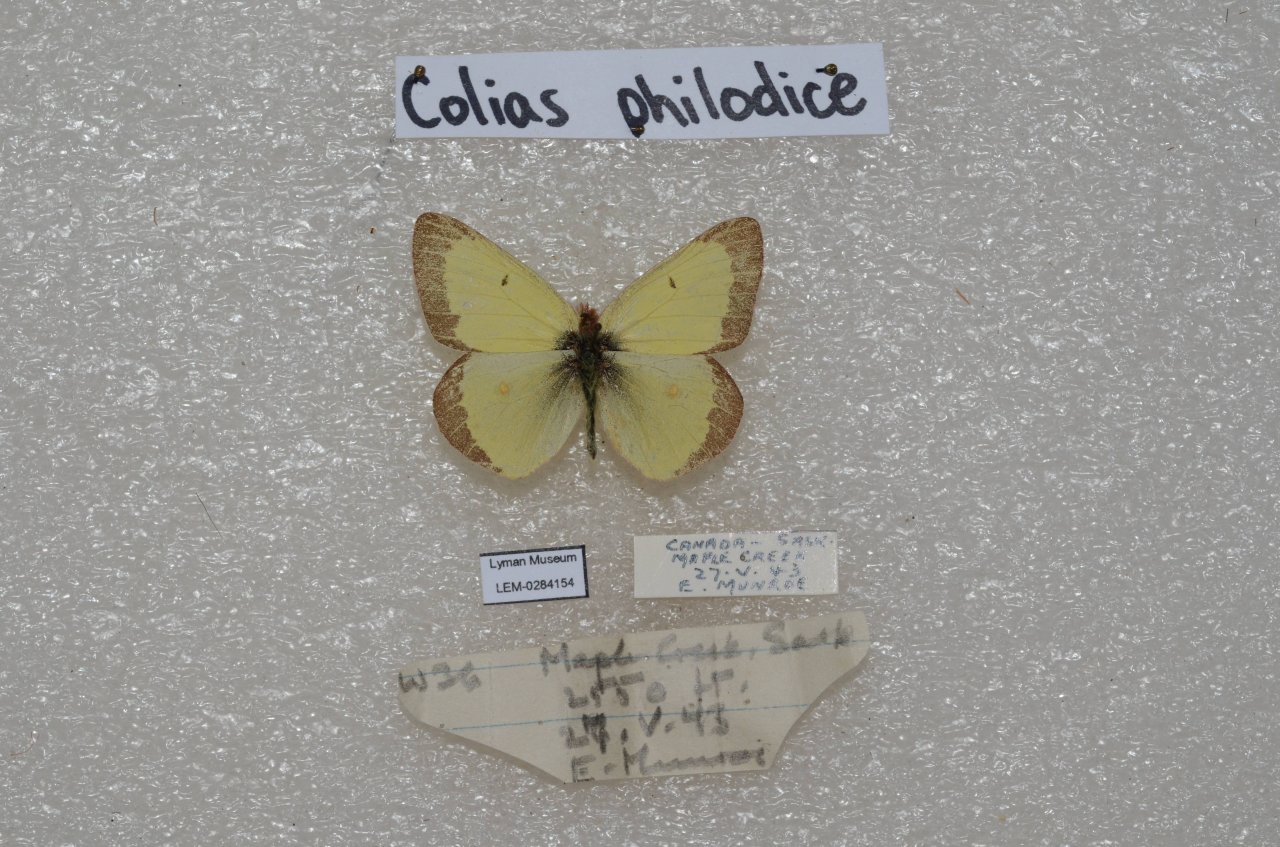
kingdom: Animalia
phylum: Arthropoda
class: Insecta
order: Lepidoptera
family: Pieridae
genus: Colias
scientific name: Colias philodice
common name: Clouded Sulphur
